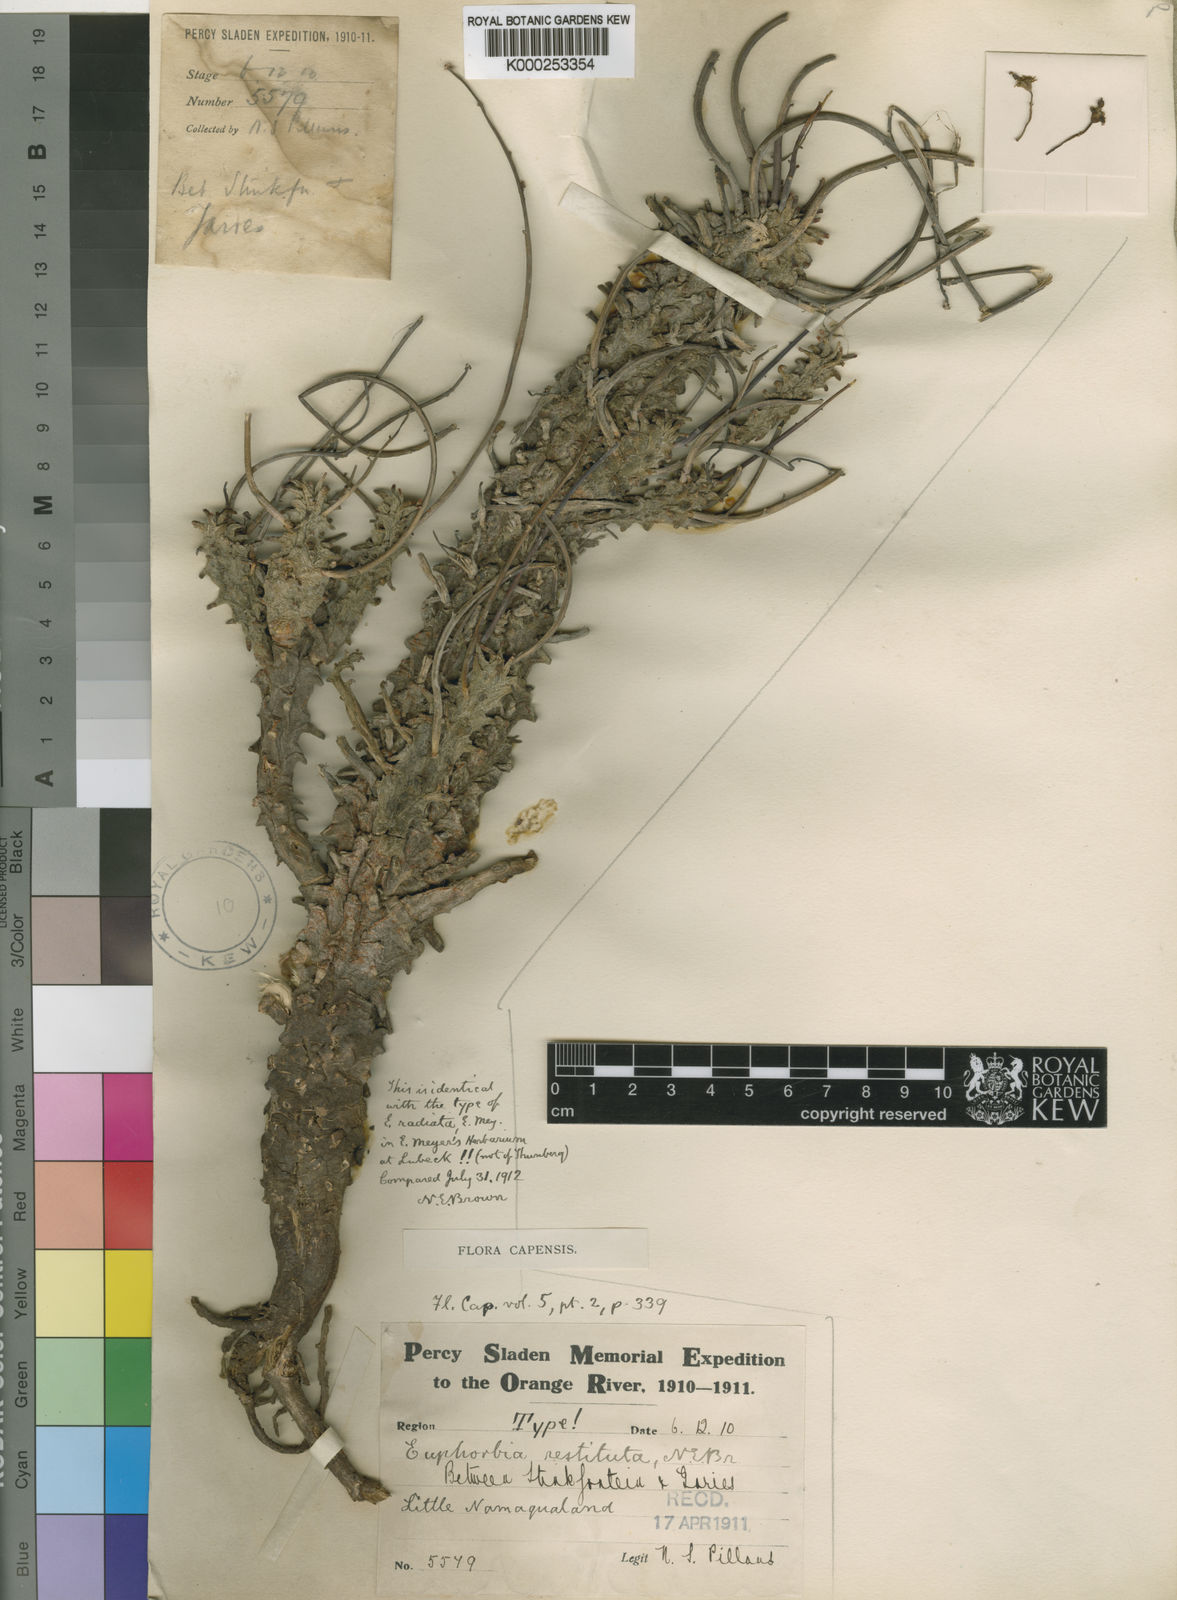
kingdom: Plantae
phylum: Tracheophyta
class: Magnoliopsida
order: Malpighiales
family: Euphorbiaceae
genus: Euphorbia
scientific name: Euphorbia restituta
